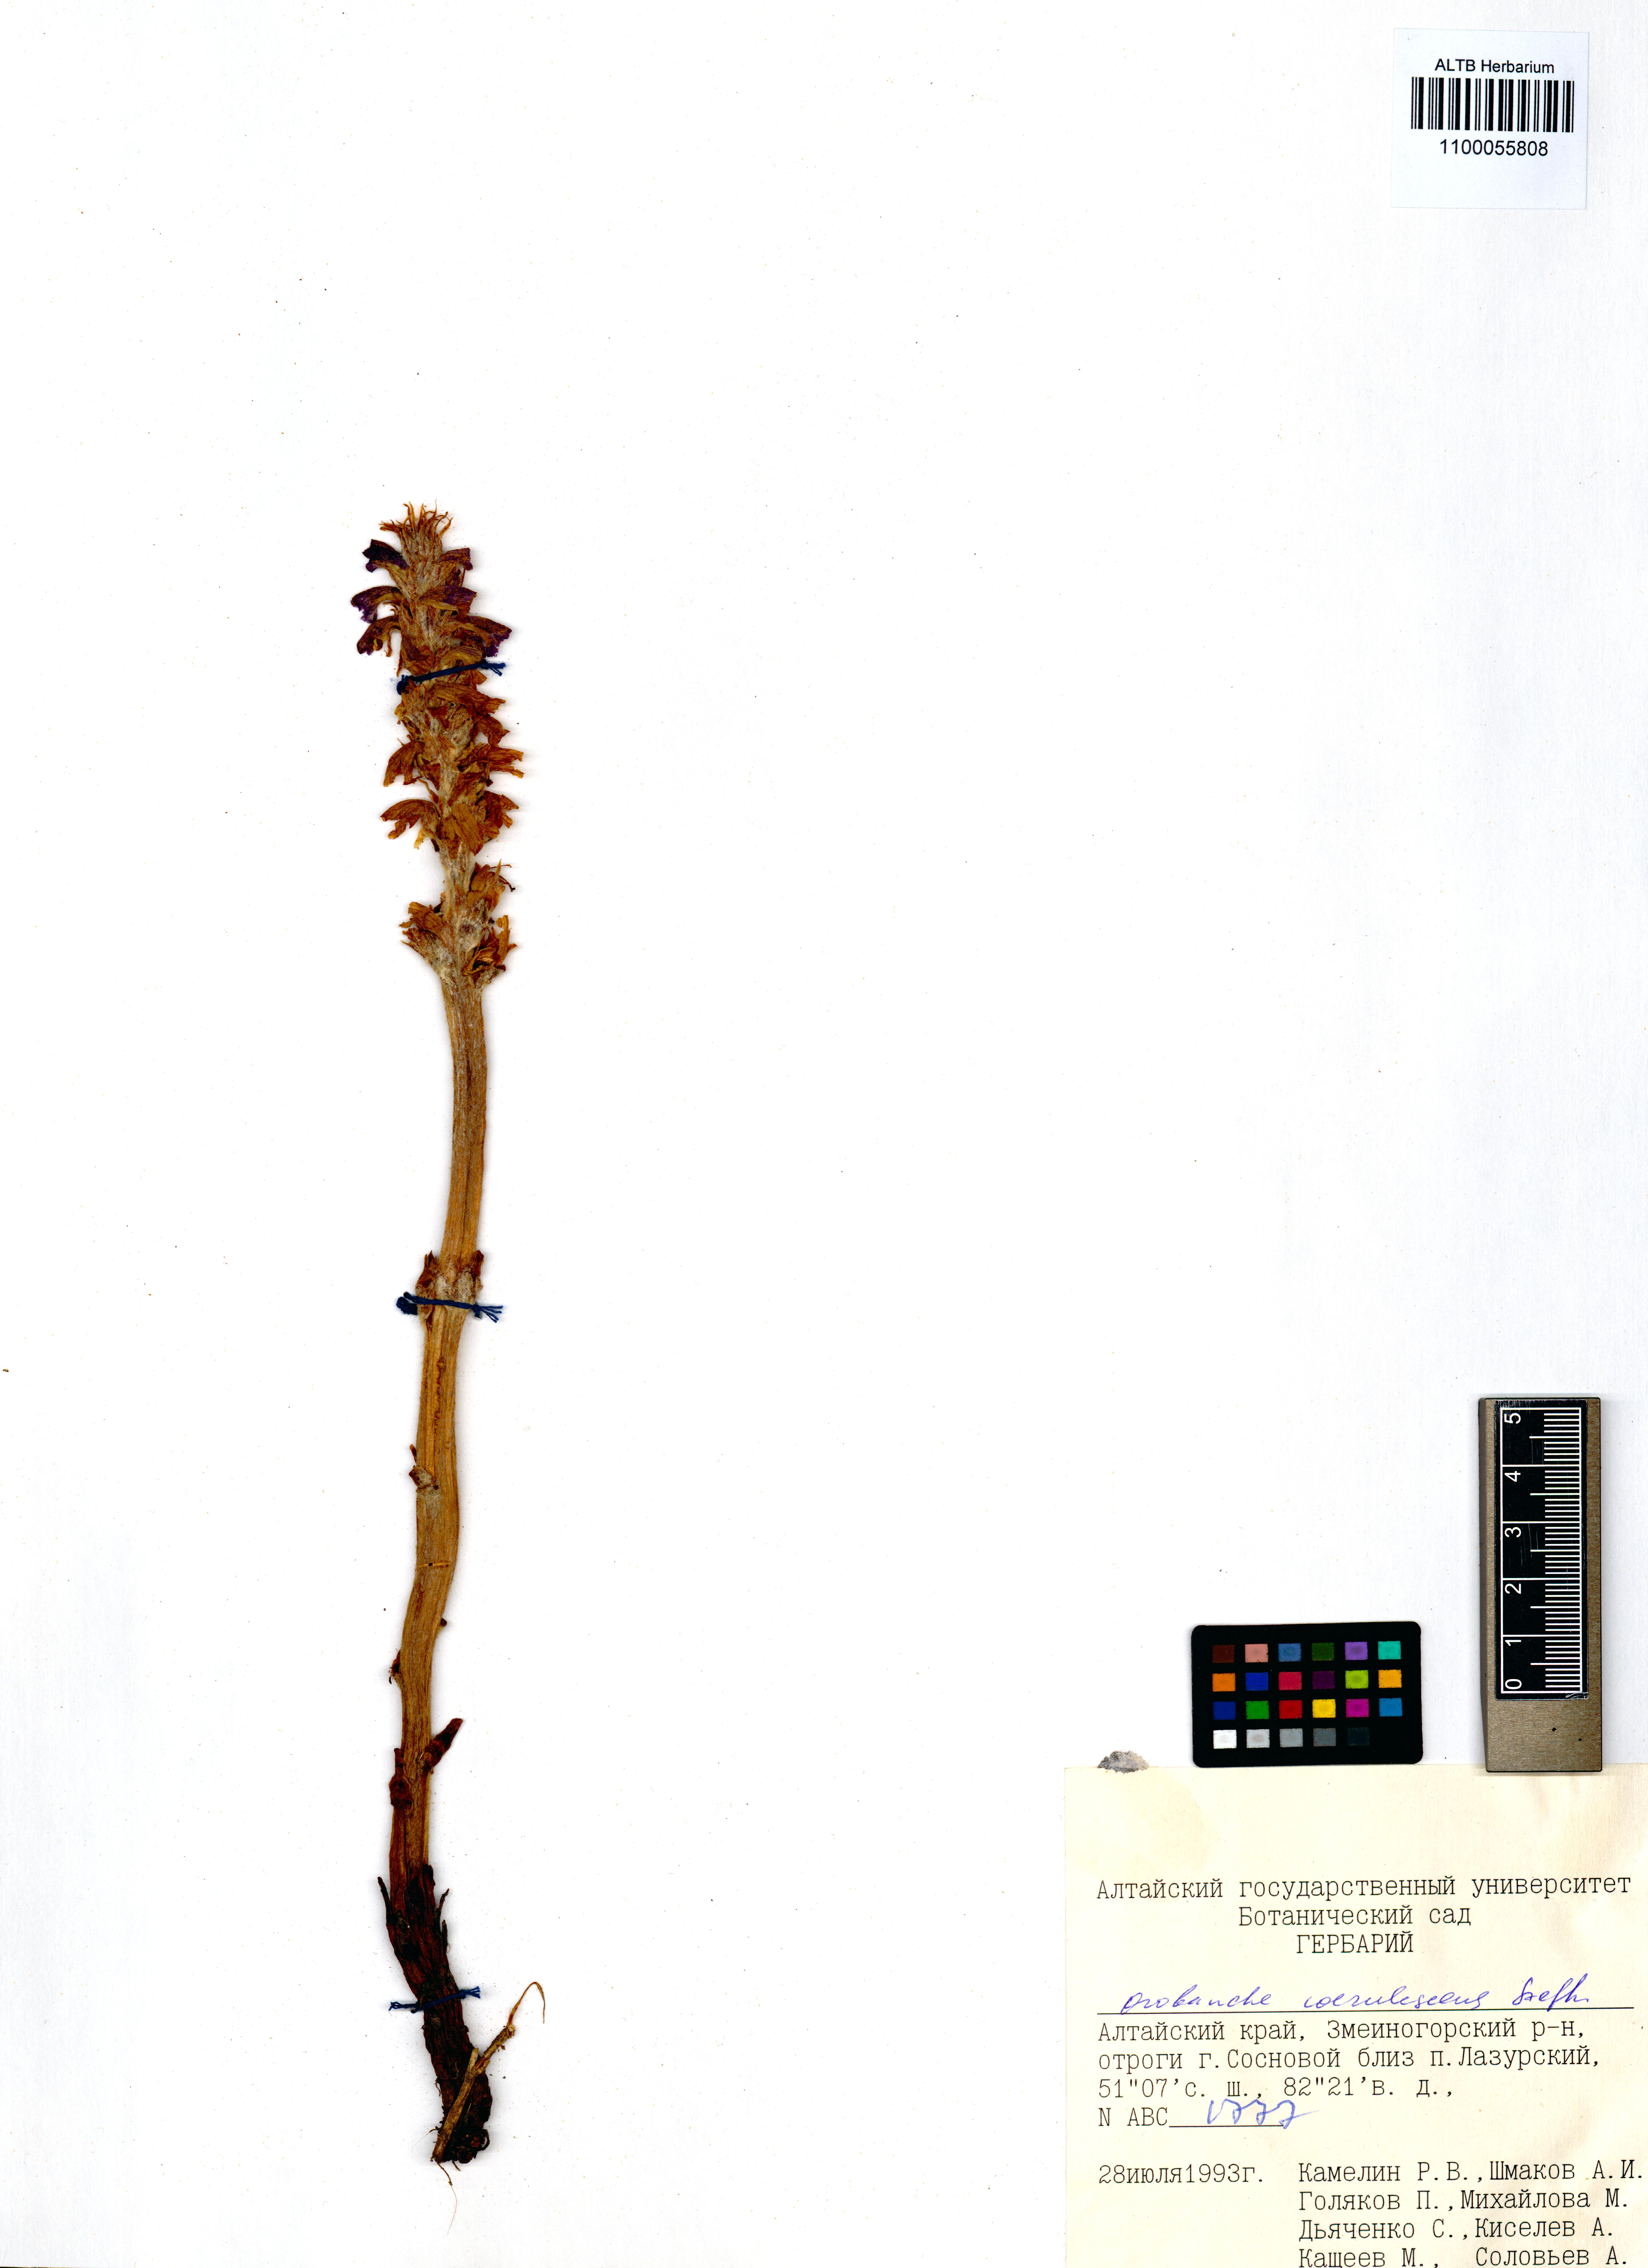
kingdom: Plantae
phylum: Tracheophyta
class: Magnoliopsida
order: Lamiales
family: Orobanchaceae
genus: Orobanche
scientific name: Orobanche coerulescens
